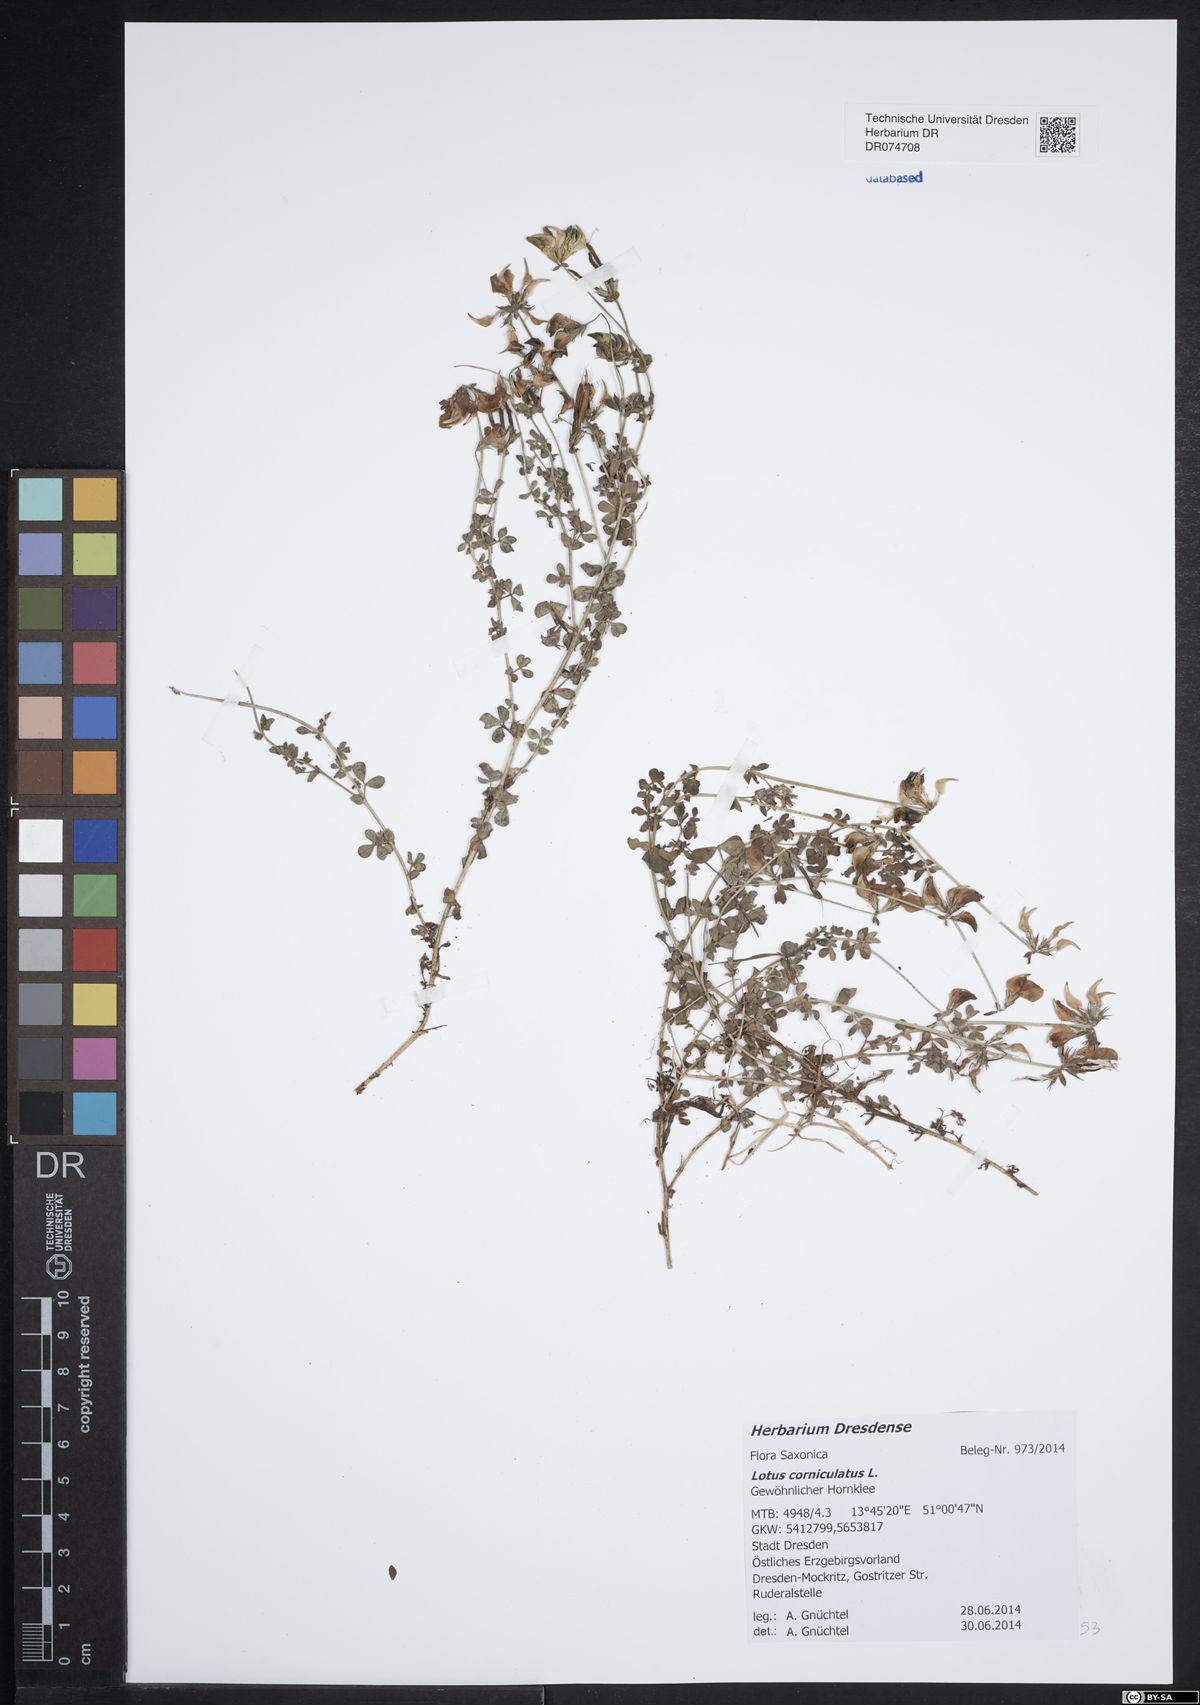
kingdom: Plantae
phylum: Tracheophyta
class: Magnoliopsida
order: Fabales
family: Fabaceae
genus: Lotus
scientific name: Lotus corniculatus
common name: Common bird's-foot-trefoil
